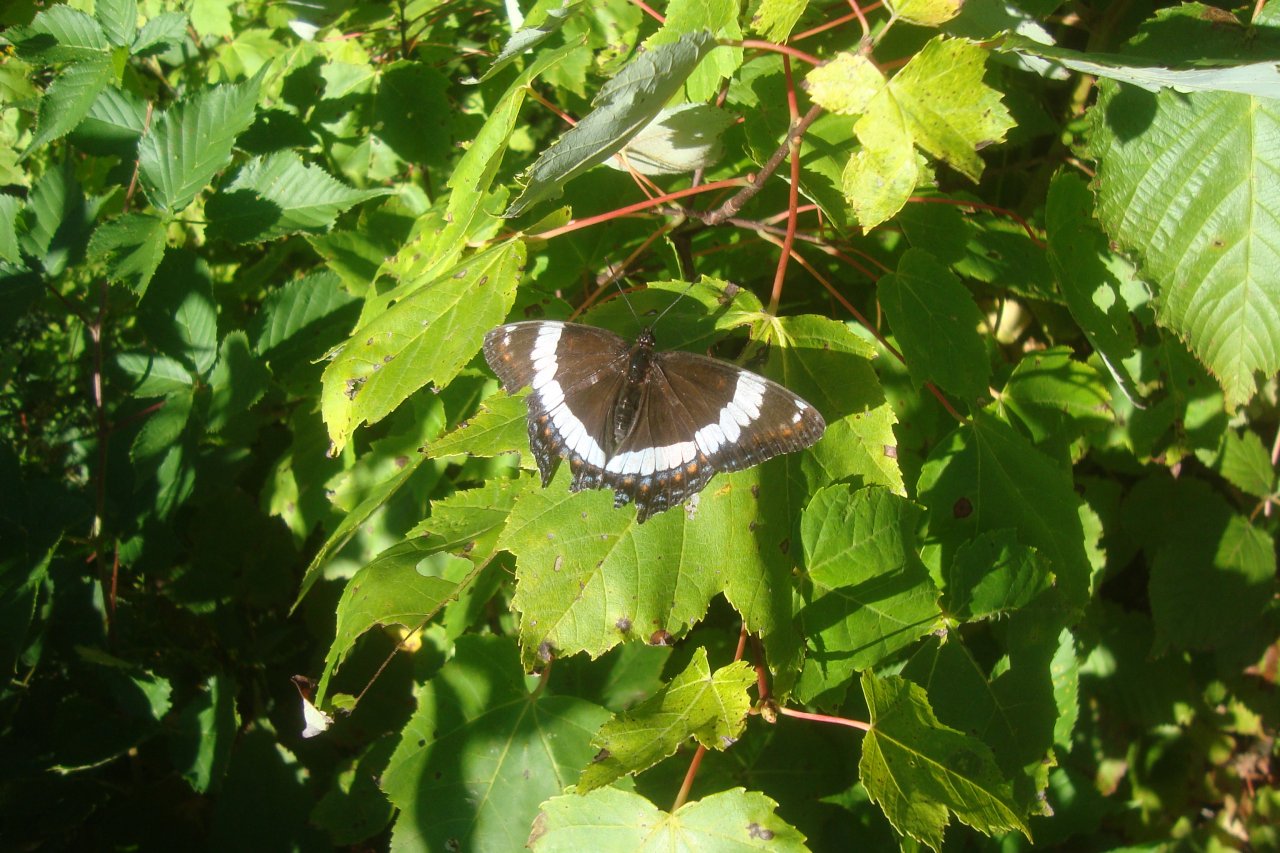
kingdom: Animalia
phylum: Arthropoda
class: Insecta
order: Lepidoptera
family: Nymphalidae
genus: Limenitis
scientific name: Limenitis arthemis
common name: Red-spotted Admiral
